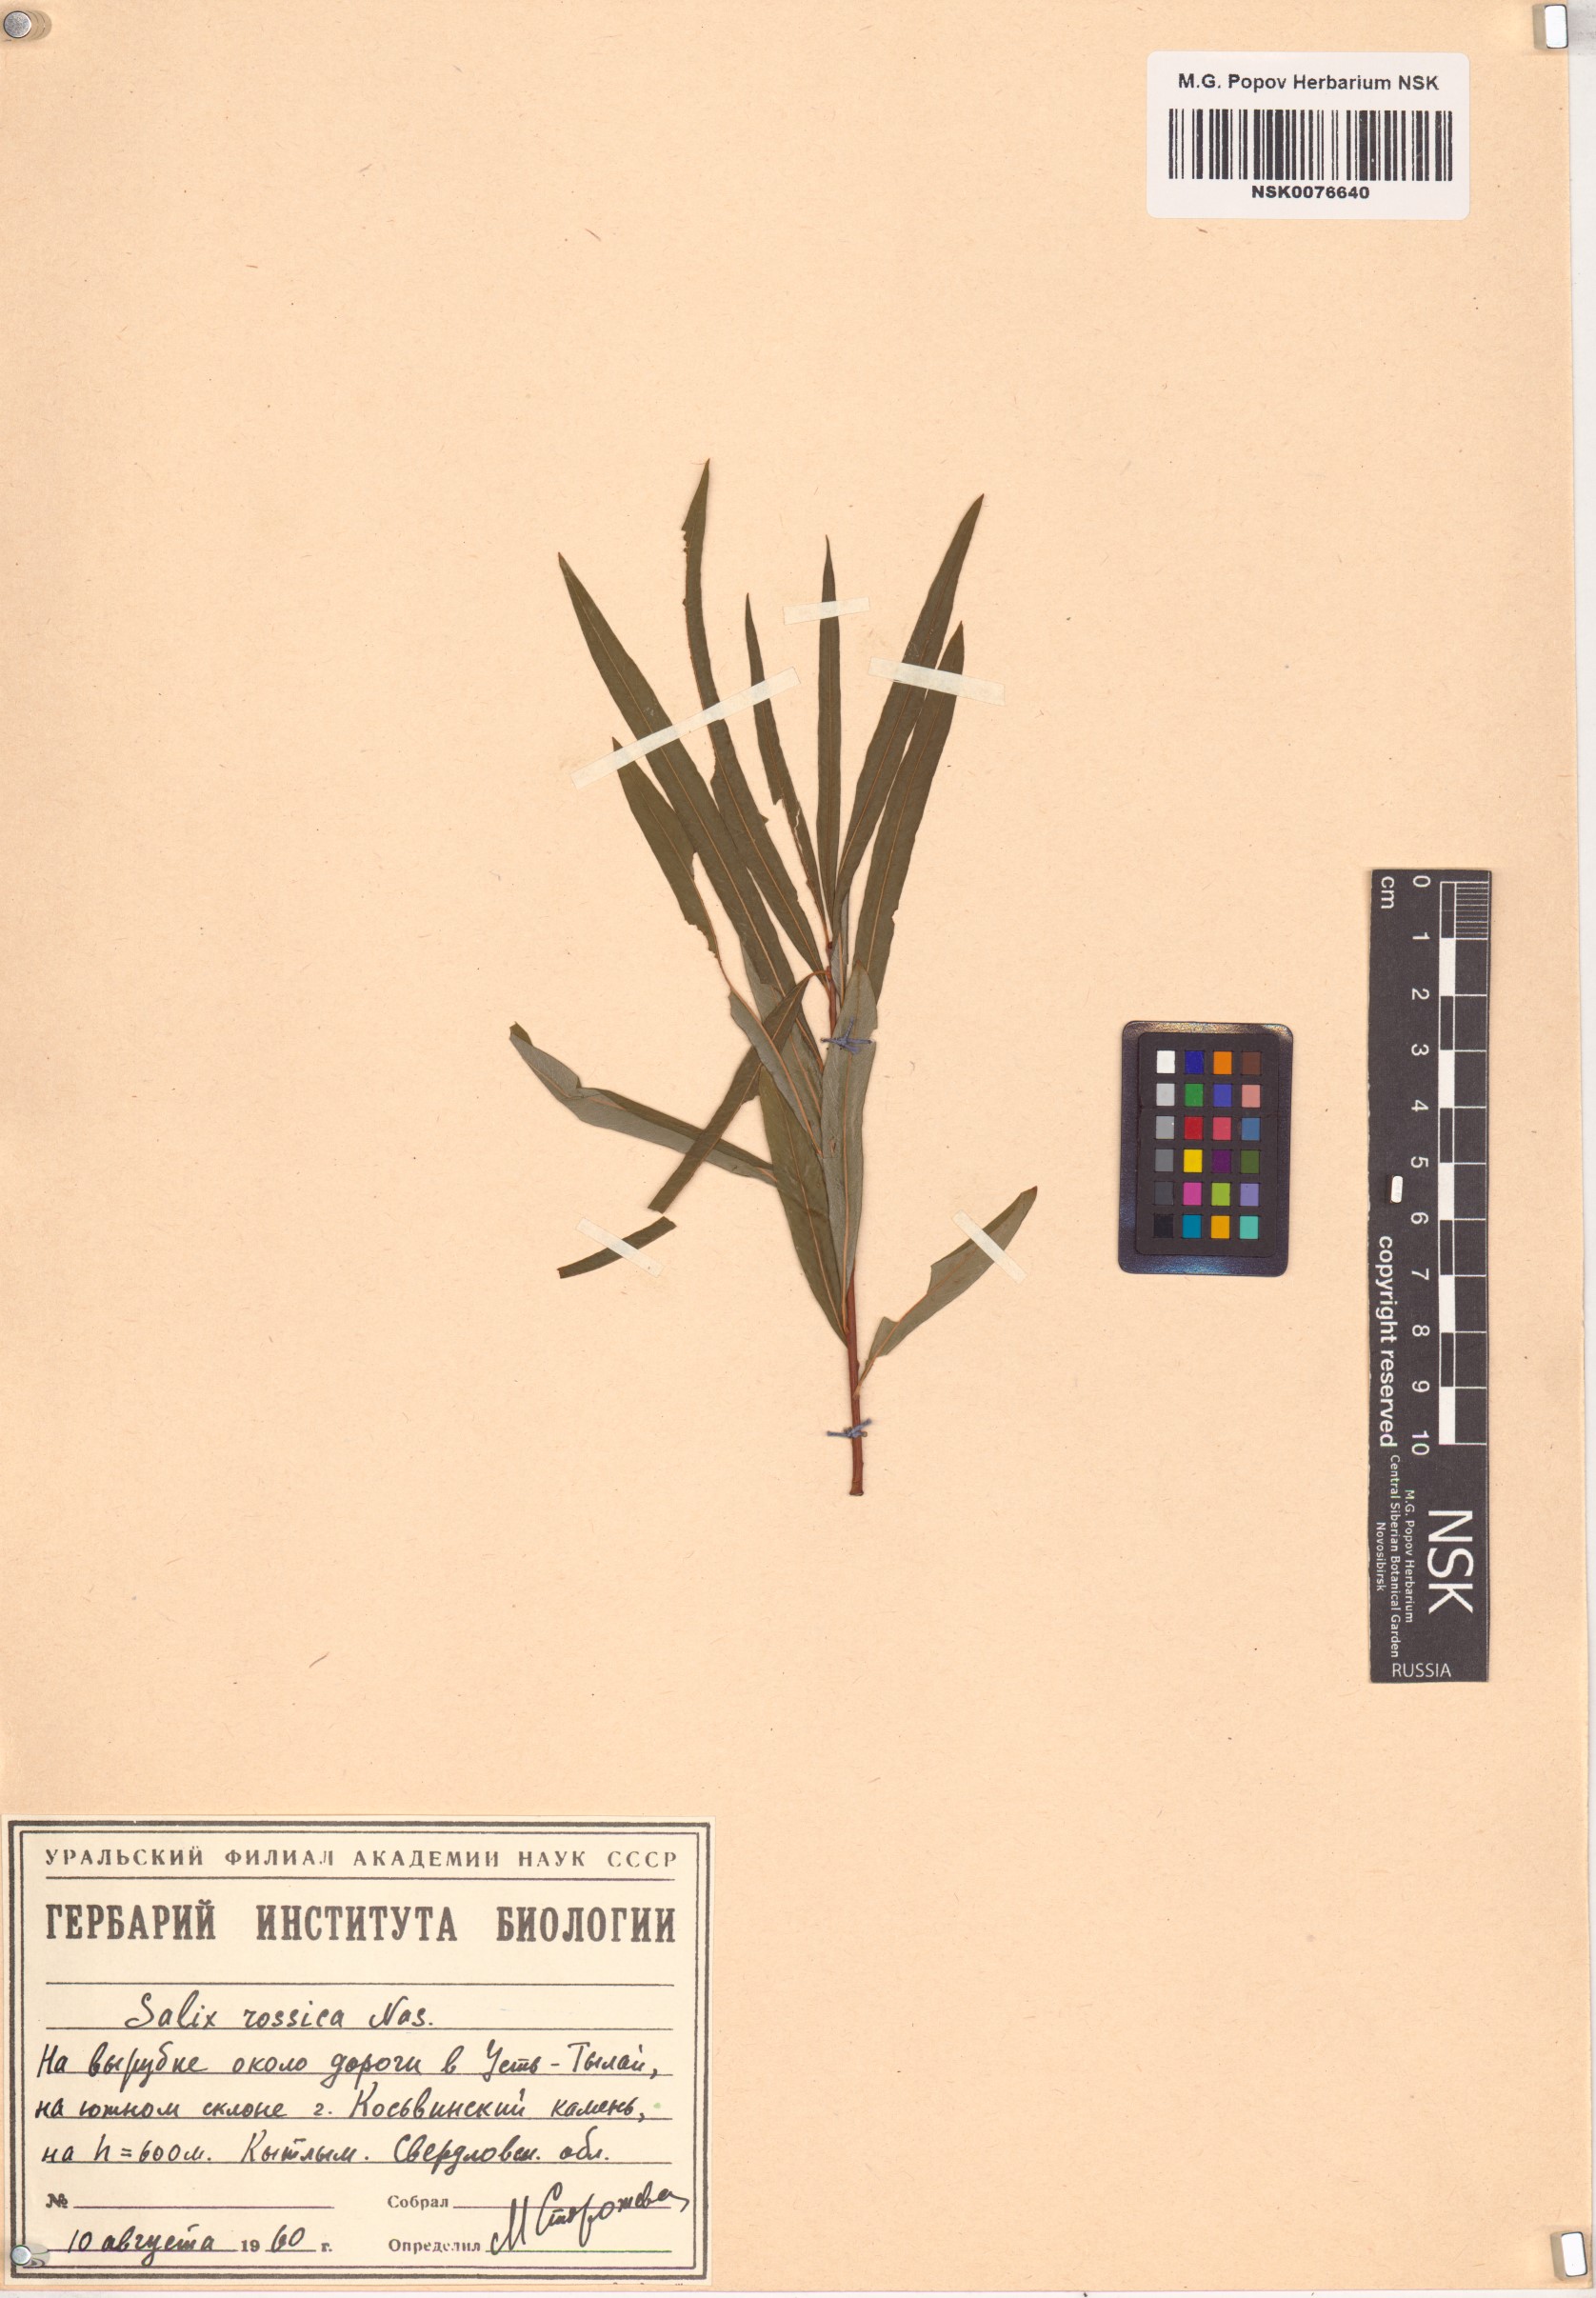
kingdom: Plantae
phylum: Tracheophyta
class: Magnoliopsida
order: Malpighiales
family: Salicaceae
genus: Salix
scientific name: Salix viminalis
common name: Osier
